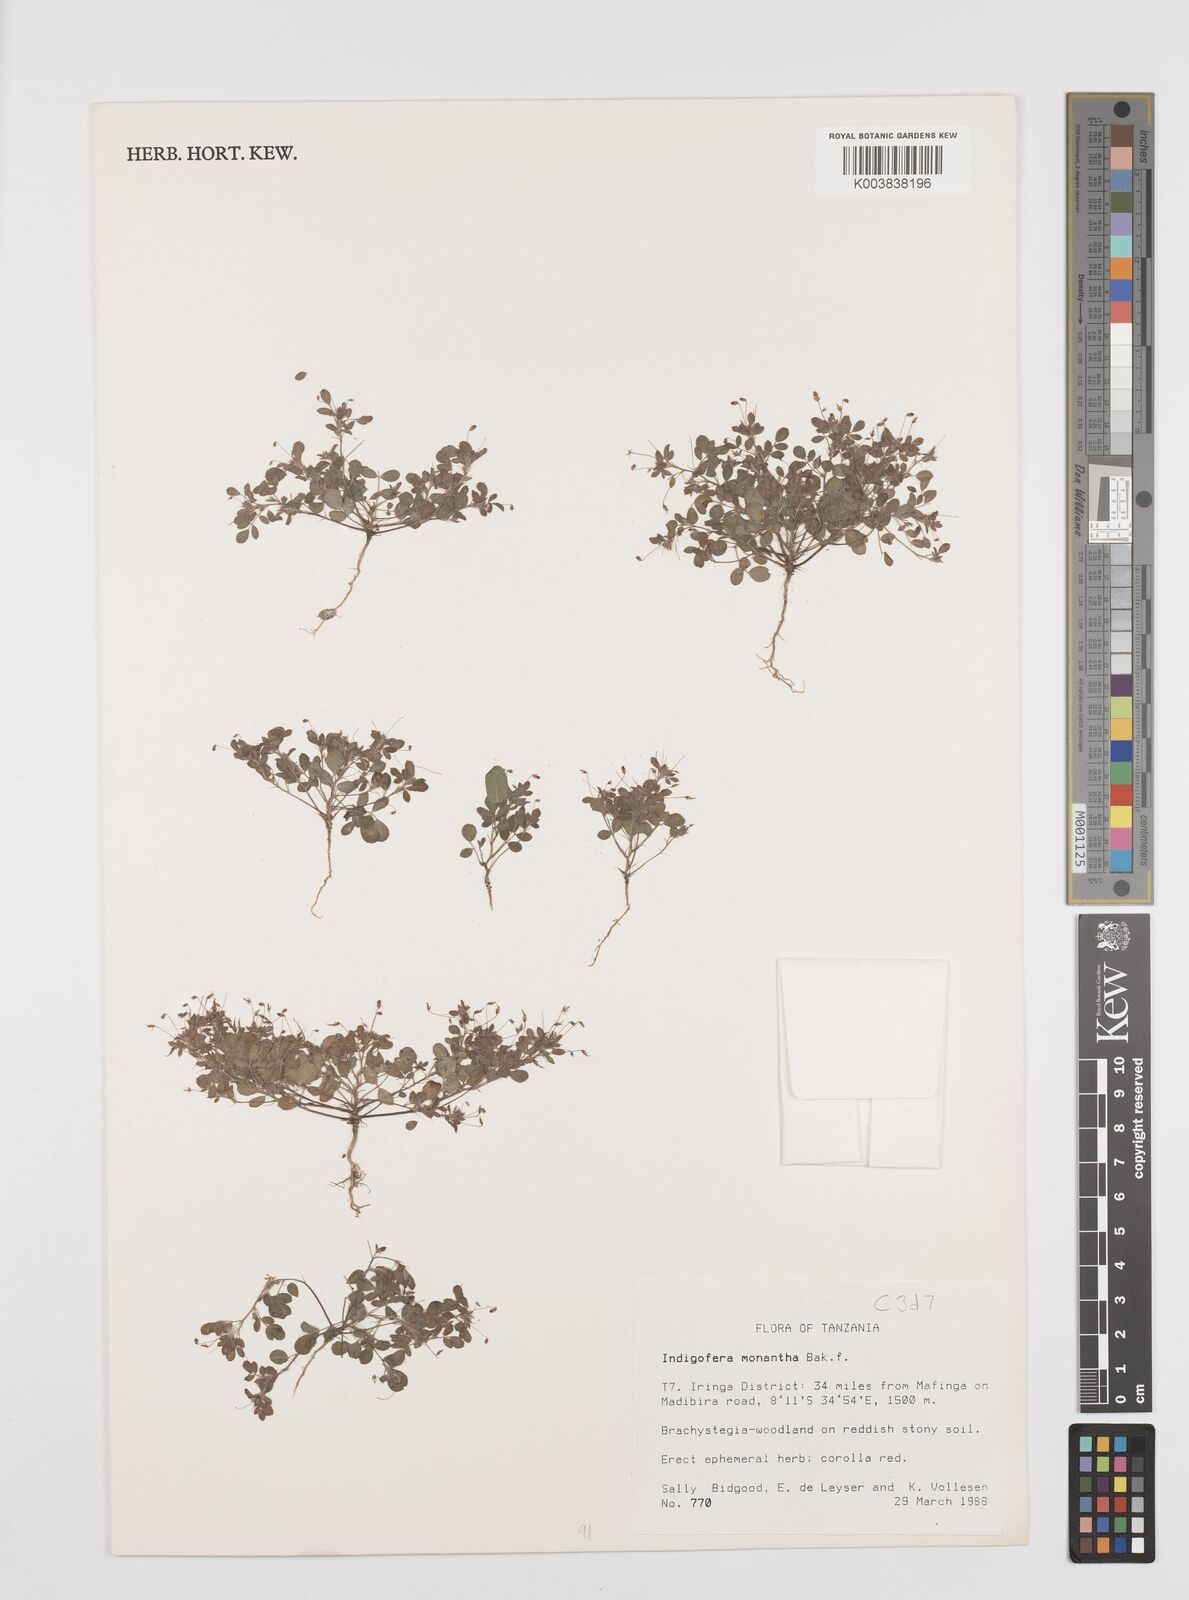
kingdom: Plantae
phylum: Tracheophyta
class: Magnoliopsida
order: Fabales
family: Fabaceae
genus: Indigofera
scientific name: Indigofera monantha
